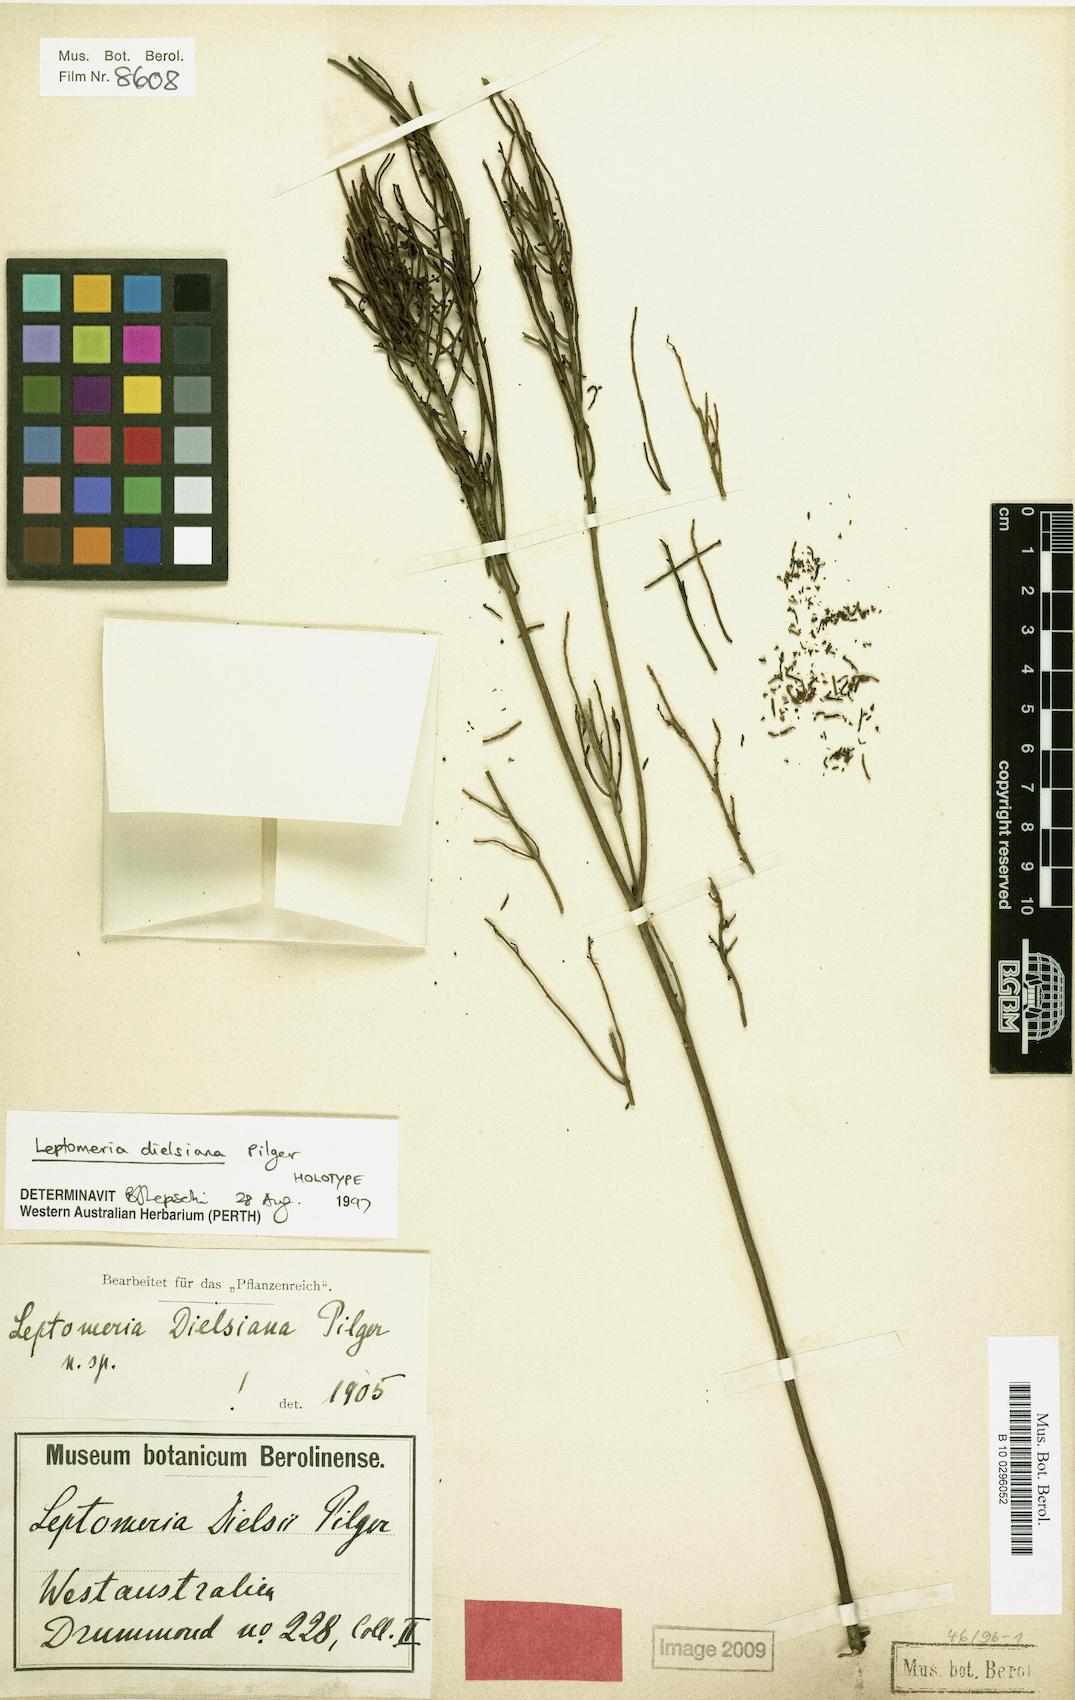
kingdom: Plantae
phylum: Tracheophyta
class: Magnoliopsida
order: Santalales
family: Amphorogynaceae
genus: Leptomeria
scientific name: Leptomeria dielsiana
